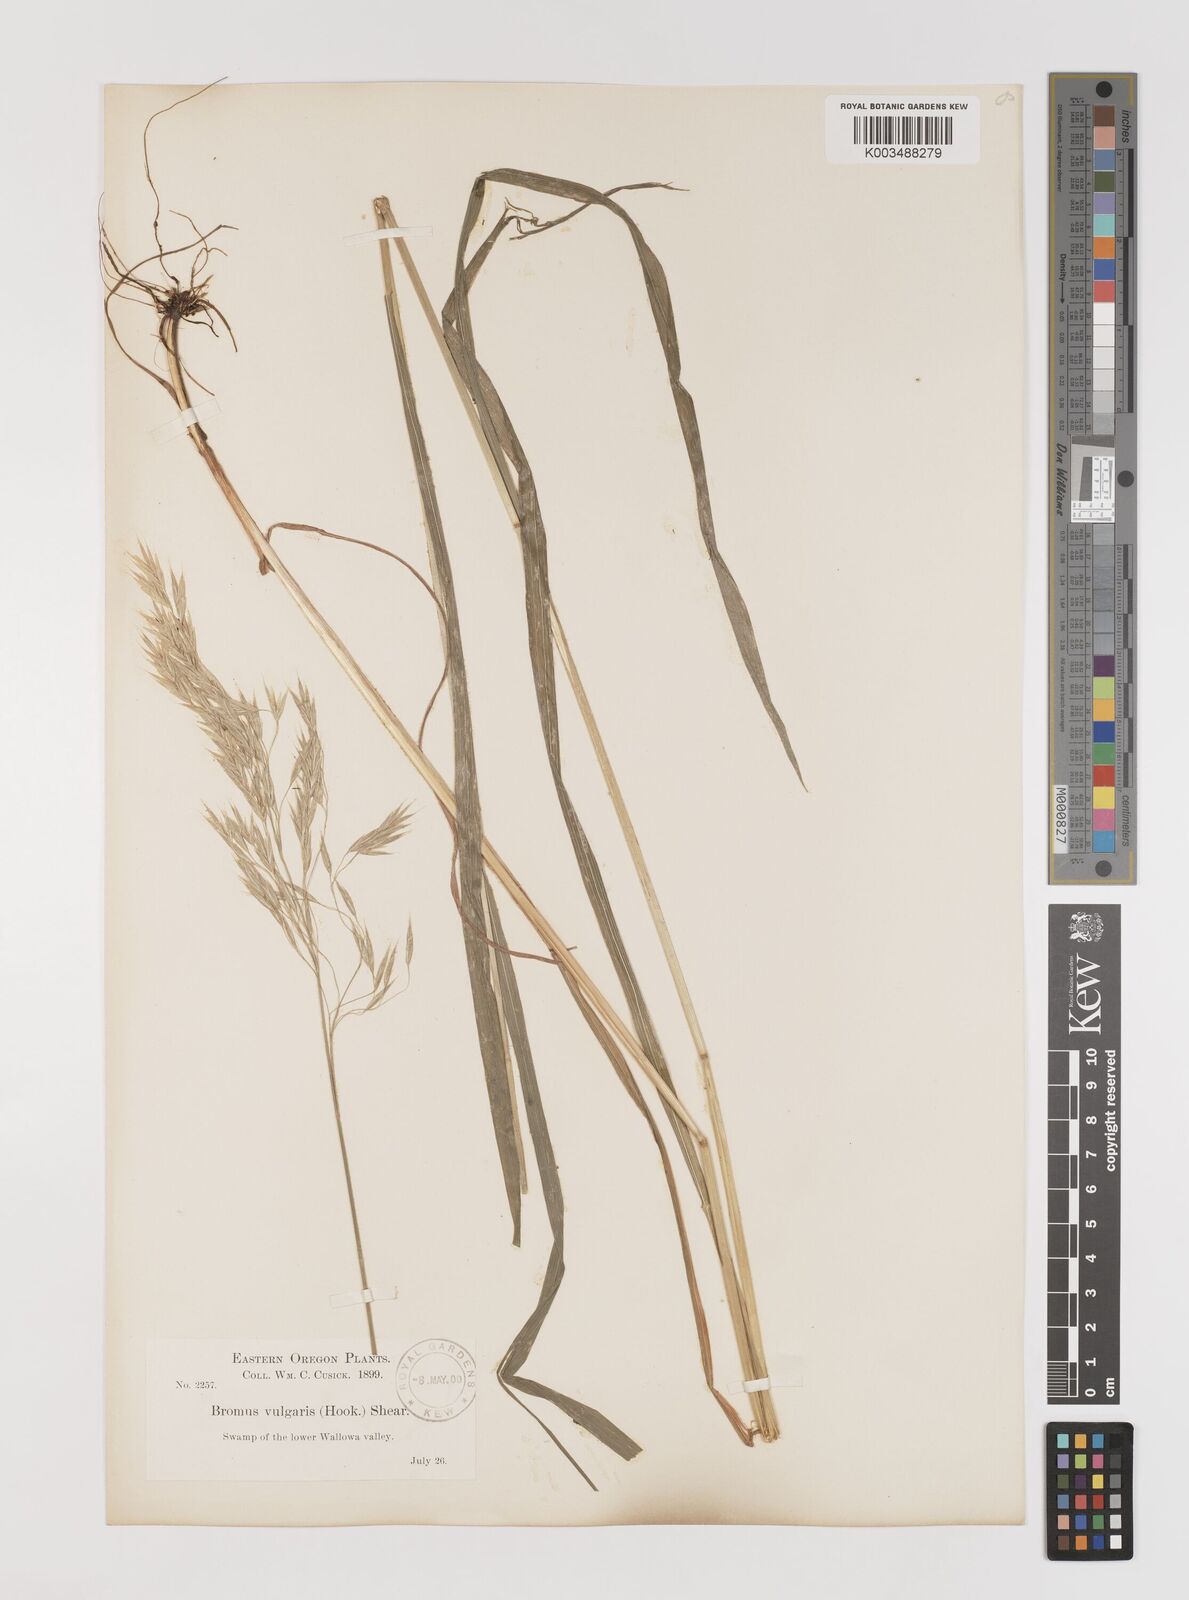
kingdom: Plantae
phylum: Tracheophyta
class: Liliopsida
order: Poales
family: Poaceae
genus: Bromus
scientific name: Bromus vulgaris
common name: Columbia brome
